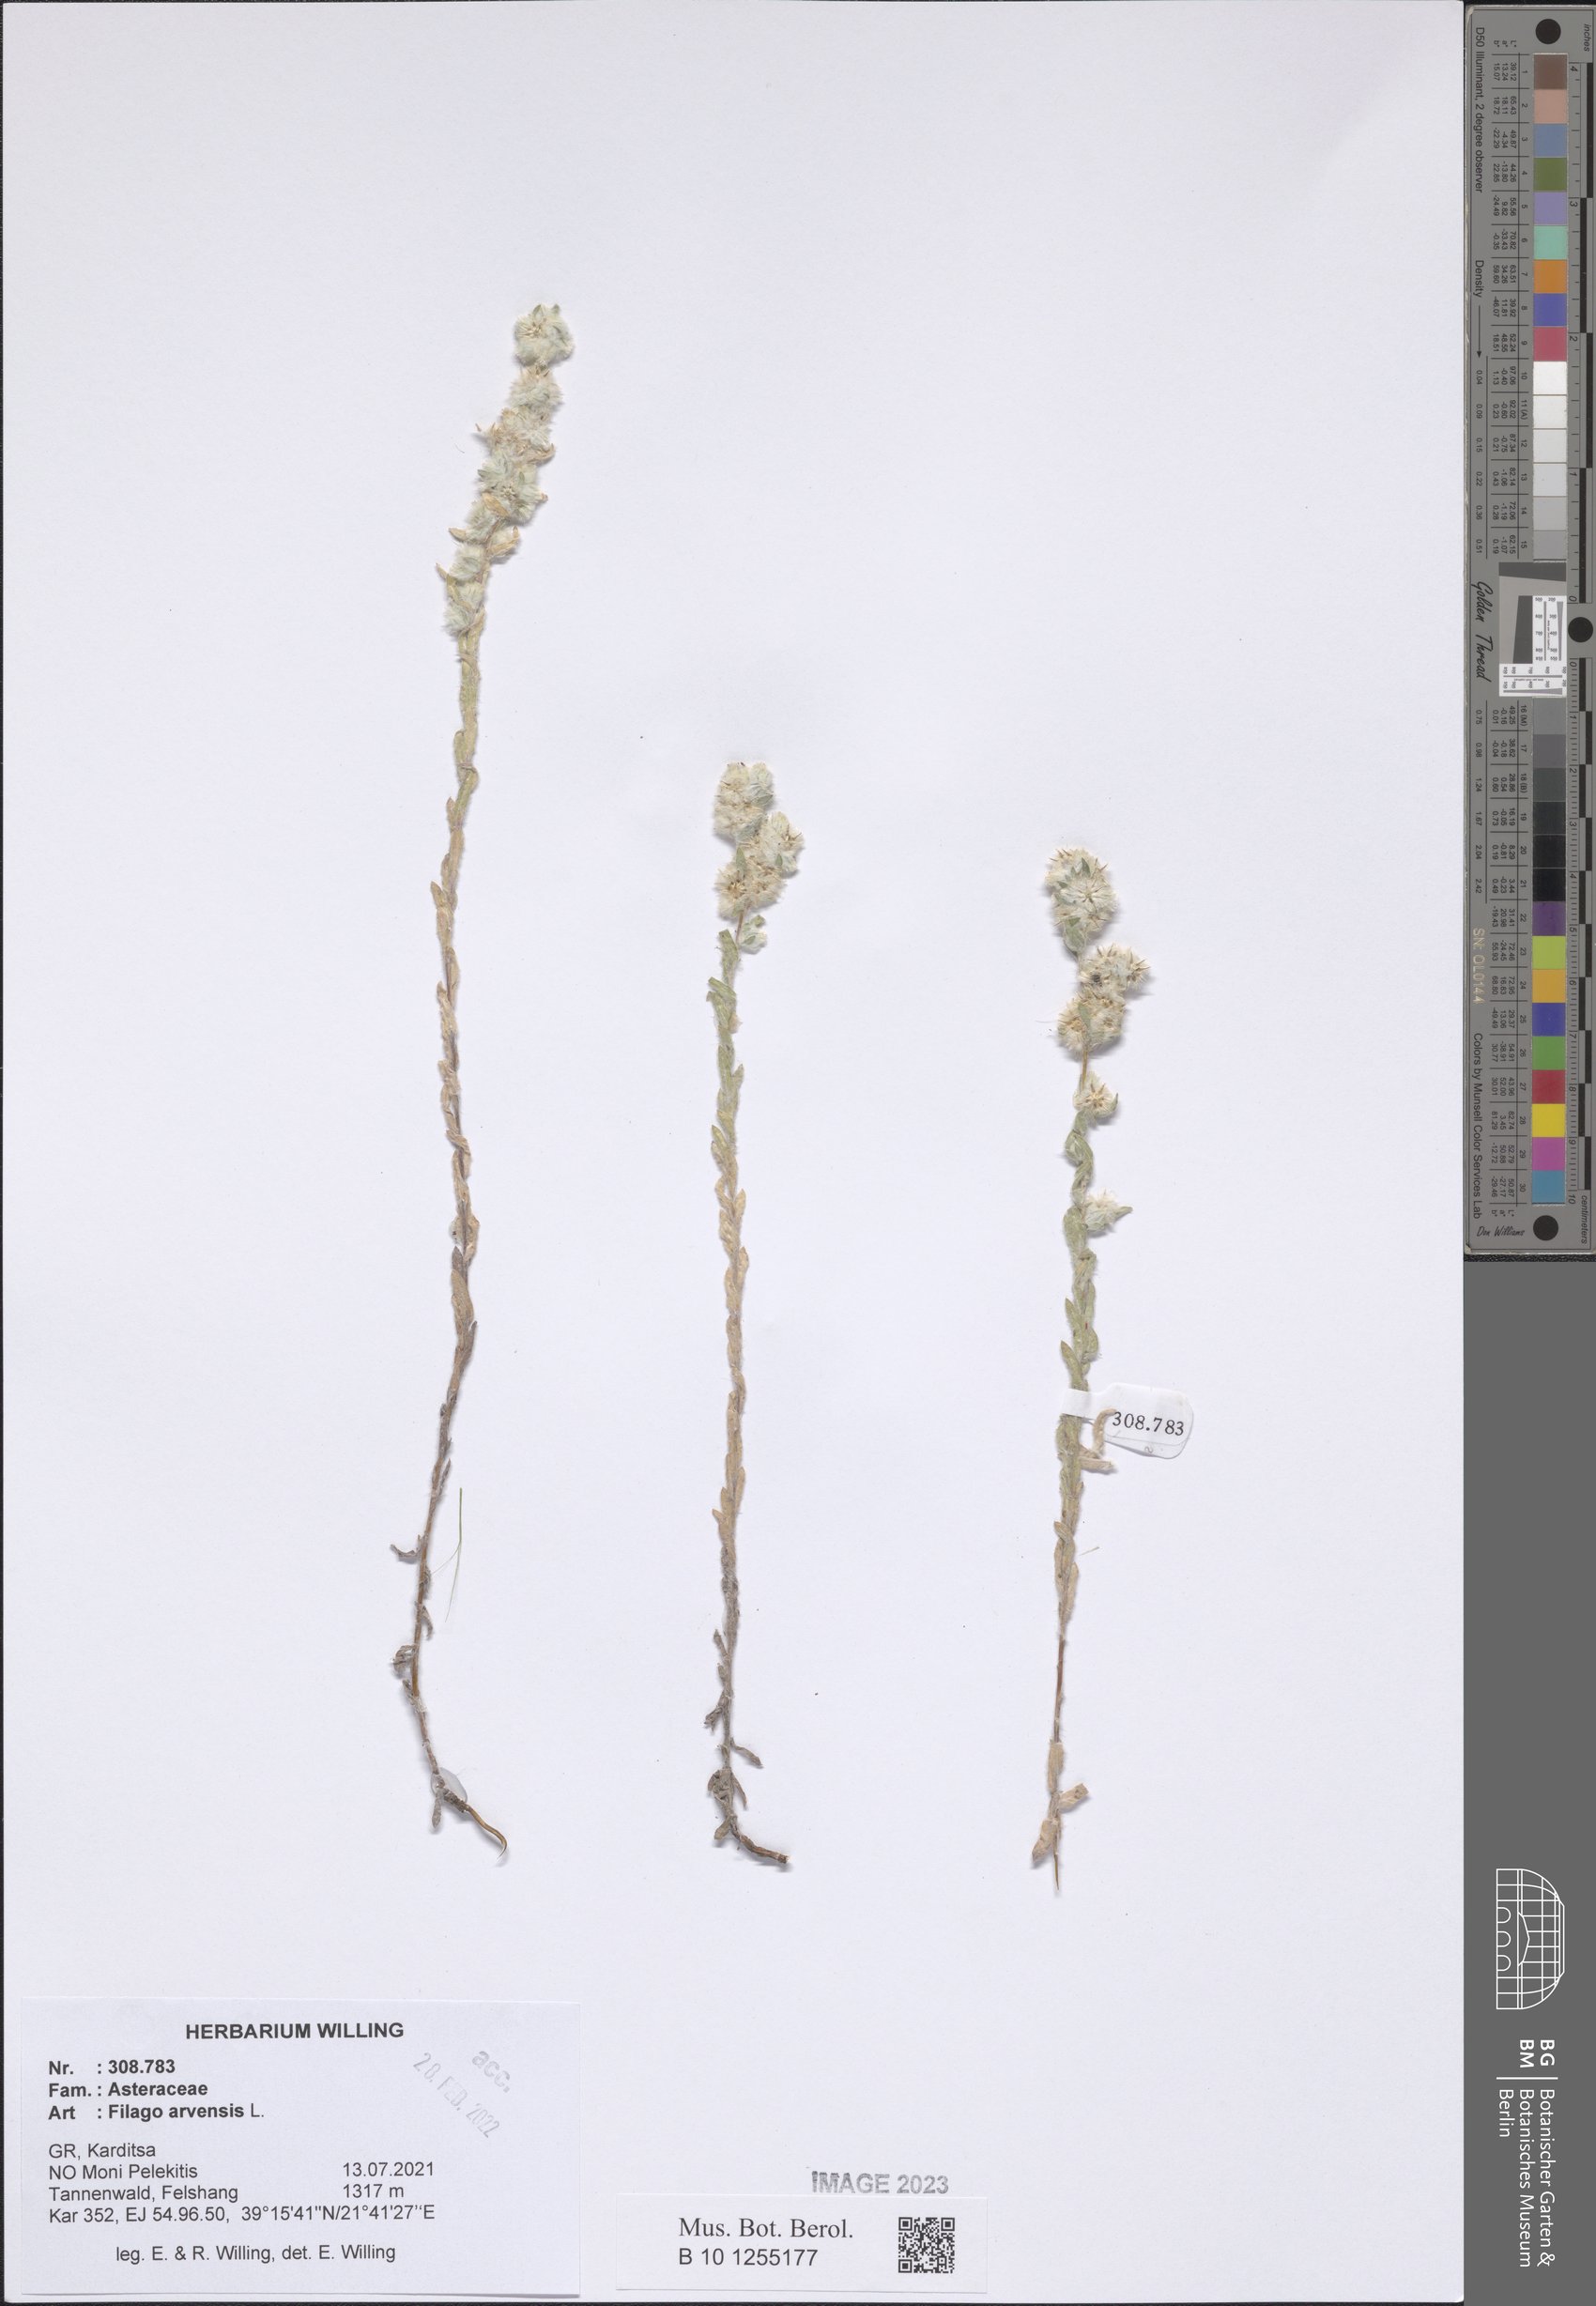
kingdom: Plantae
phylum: Tracheophyta
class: Magnoliopsida
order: Asterales
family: Asteraceae
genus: Filago
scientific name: Filago arvensis
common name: Field cudweed
